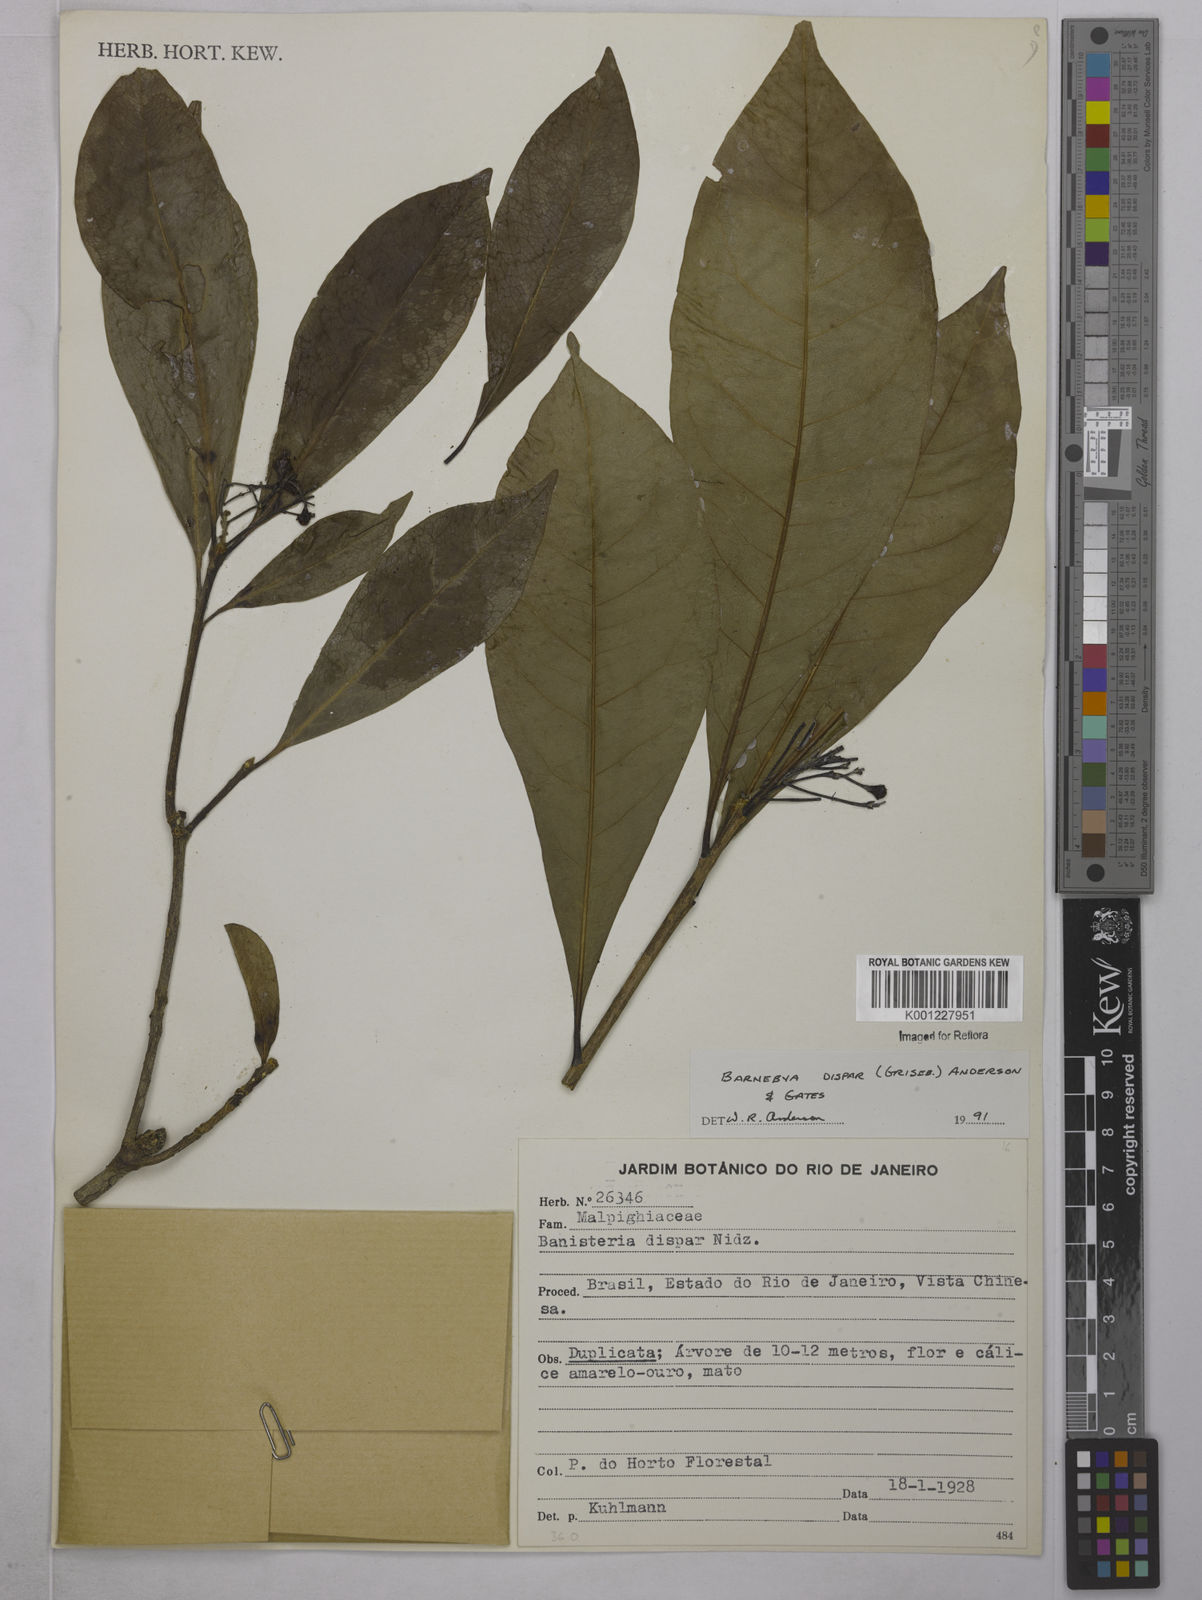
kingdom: Plantae
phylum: Tracheophyta
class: Magnoliopsida
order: Malpighiales
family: Malpighiaceae
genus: Barnebya
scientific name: Barnebya dispar
